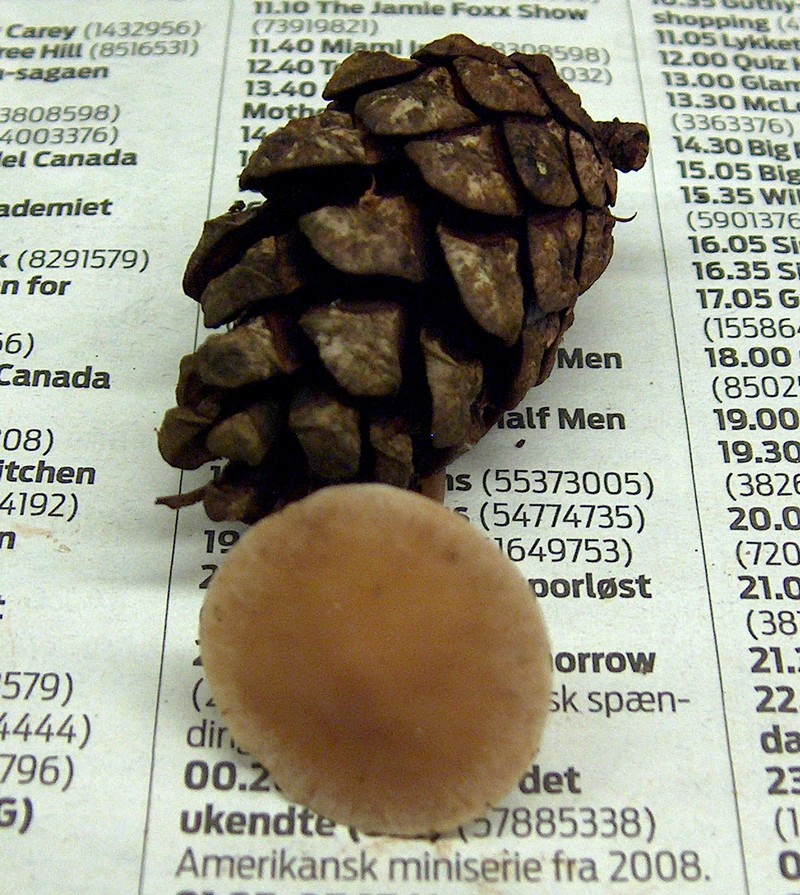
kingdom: Fungi
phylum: Basidiomycota
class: Agaricomycetes
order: Agaricales
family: Marasmiaceae
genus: Baeospora
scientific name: Baeospora myosura
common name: koglebruskhat
